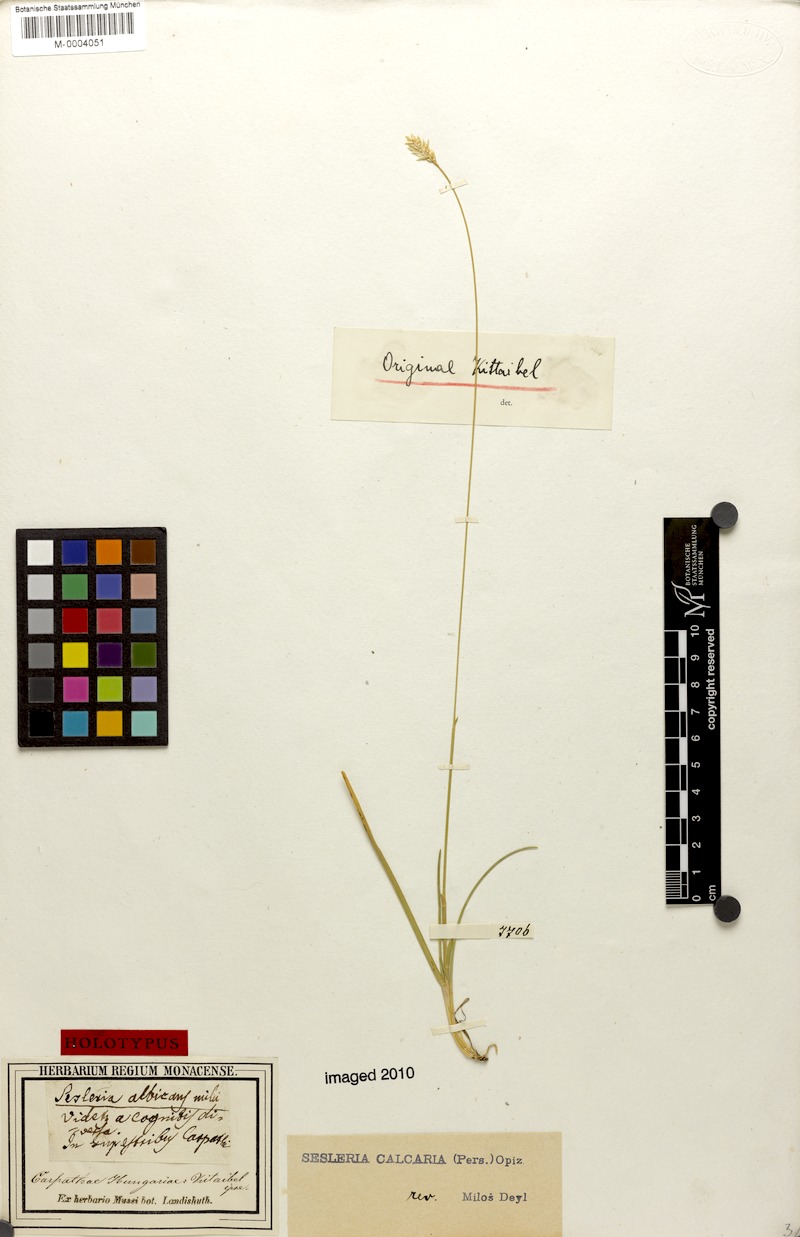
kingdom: Plantae
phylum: Tracheophyta
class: Liliopsida
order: Poales
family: Poaceae
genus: Sesleria
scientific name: Sesleria caerulea
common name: Blue moor-grass
